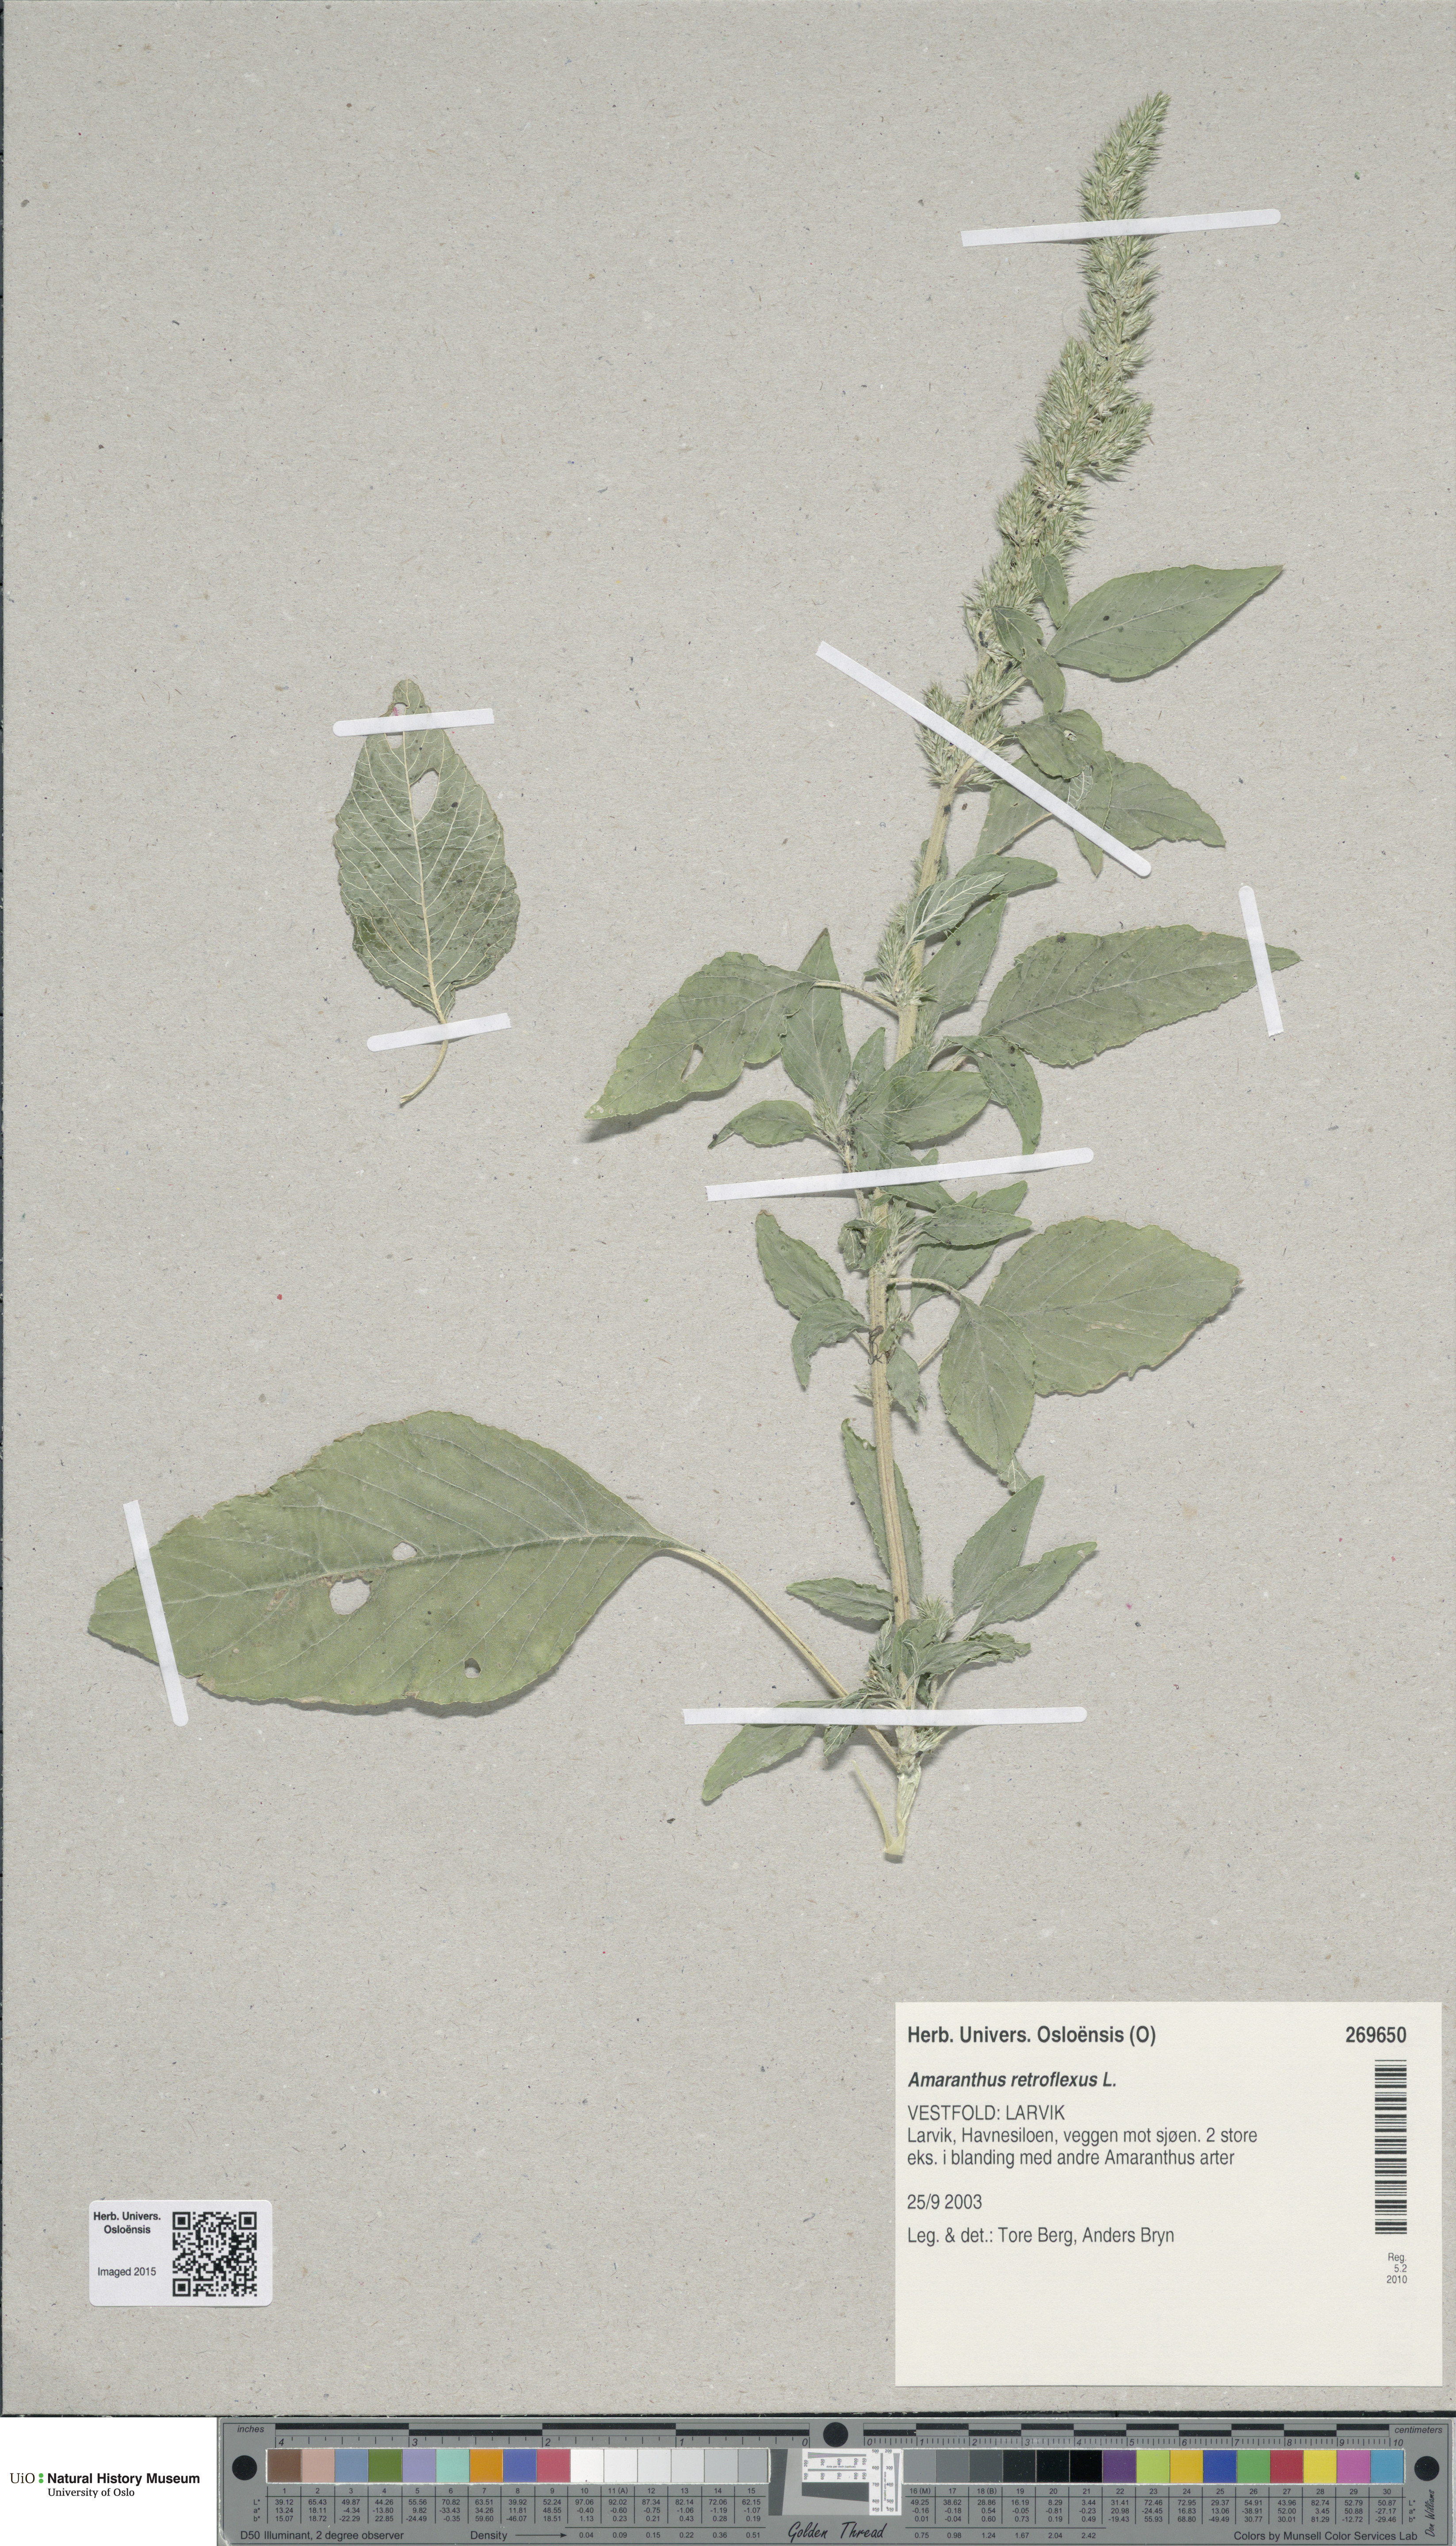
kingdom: Plantae
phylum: Tracheophyta
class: Magnoliopsida
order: Caryophyllales
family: Amaranthaceae
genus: Amaranthus
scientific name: Amaranthus retroflexus
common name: Redroot amaranth
